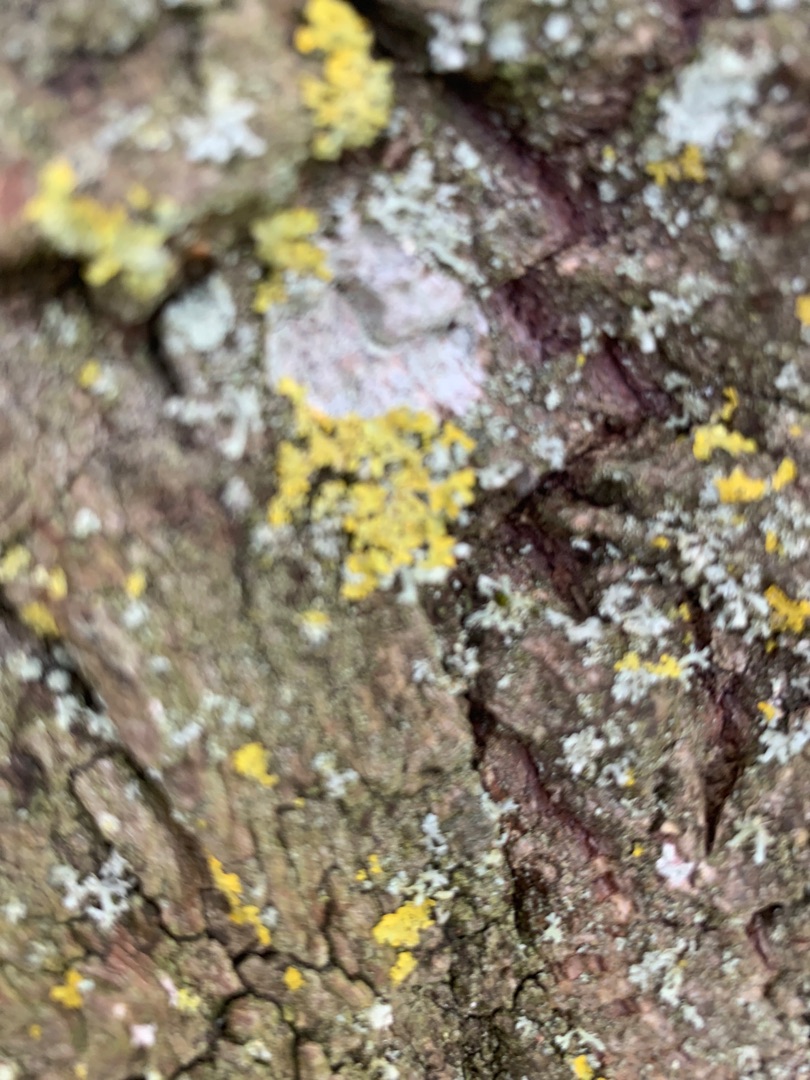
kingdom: Fungi
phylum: Ascomycota
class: Lecanoromycetes
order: Teloschistales
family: Teloschistaceae
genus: Xanthoria
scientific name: Xanthoria parietina
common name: Almindelig væggelav
